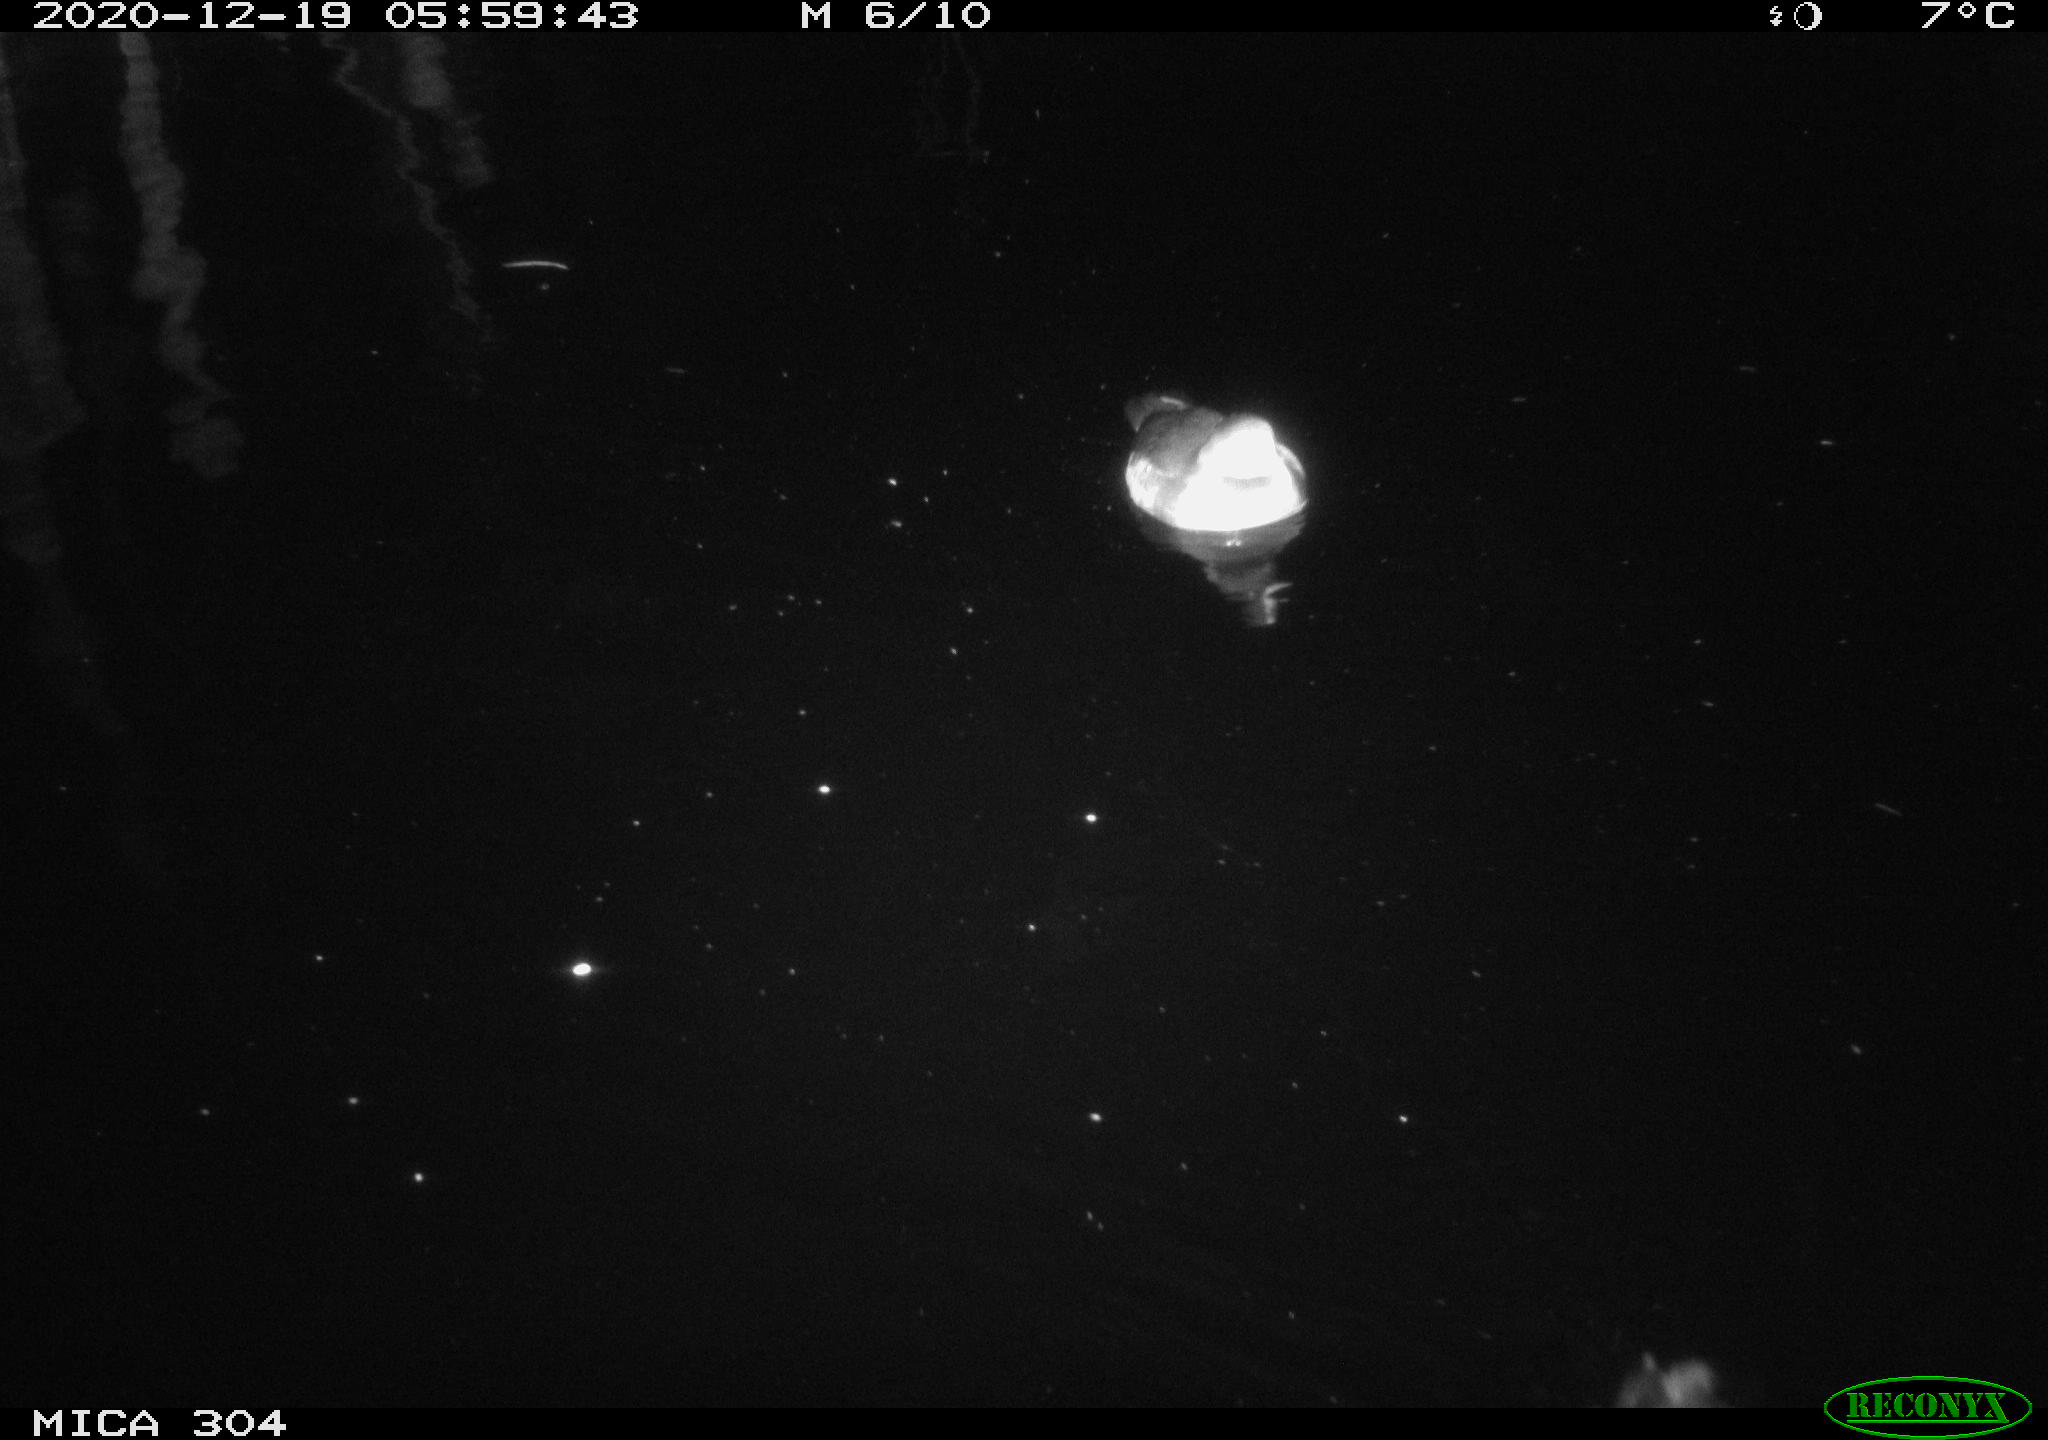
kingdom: Animalia
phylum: Chordata
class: Aves
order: Gruiformes
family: Rallidae
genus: Fulica
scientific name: Fulica atra
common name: Eurasian coot
